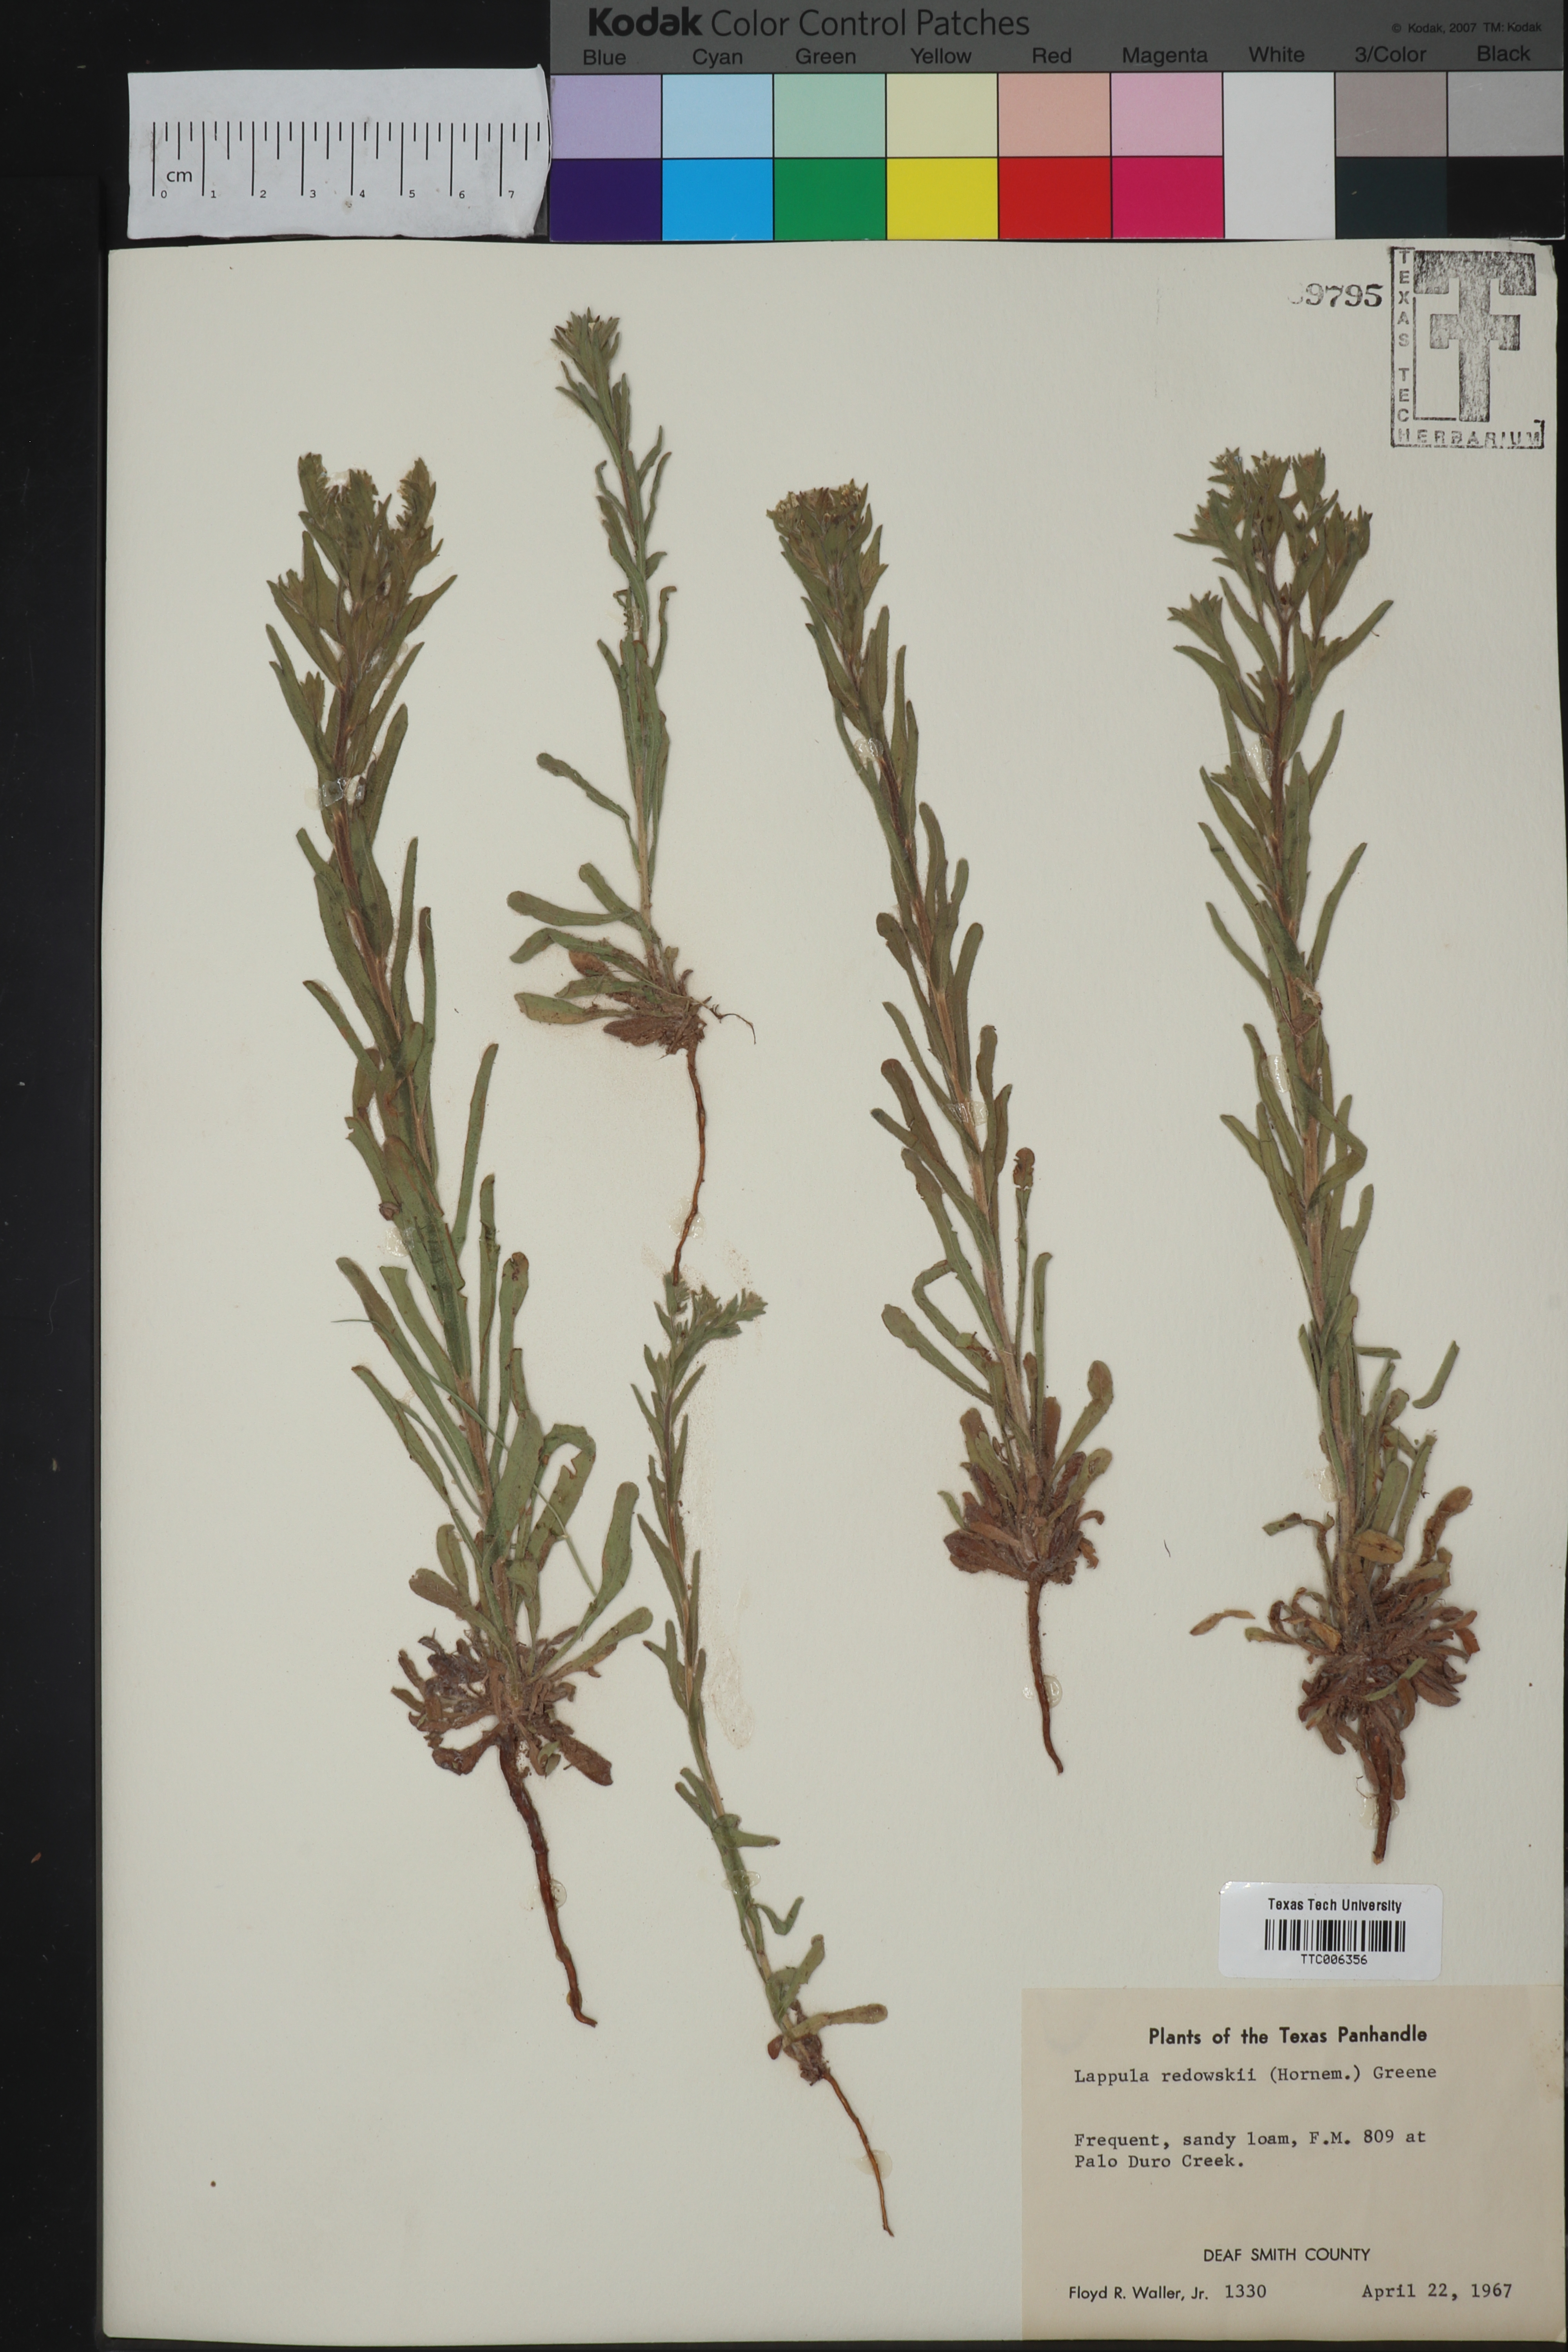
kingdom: Plantae
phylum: Tracheophyta
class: Magnoliopsida
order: Boraginales
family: Boraginaceae
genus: Lappula
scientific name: Lappula redowskii
